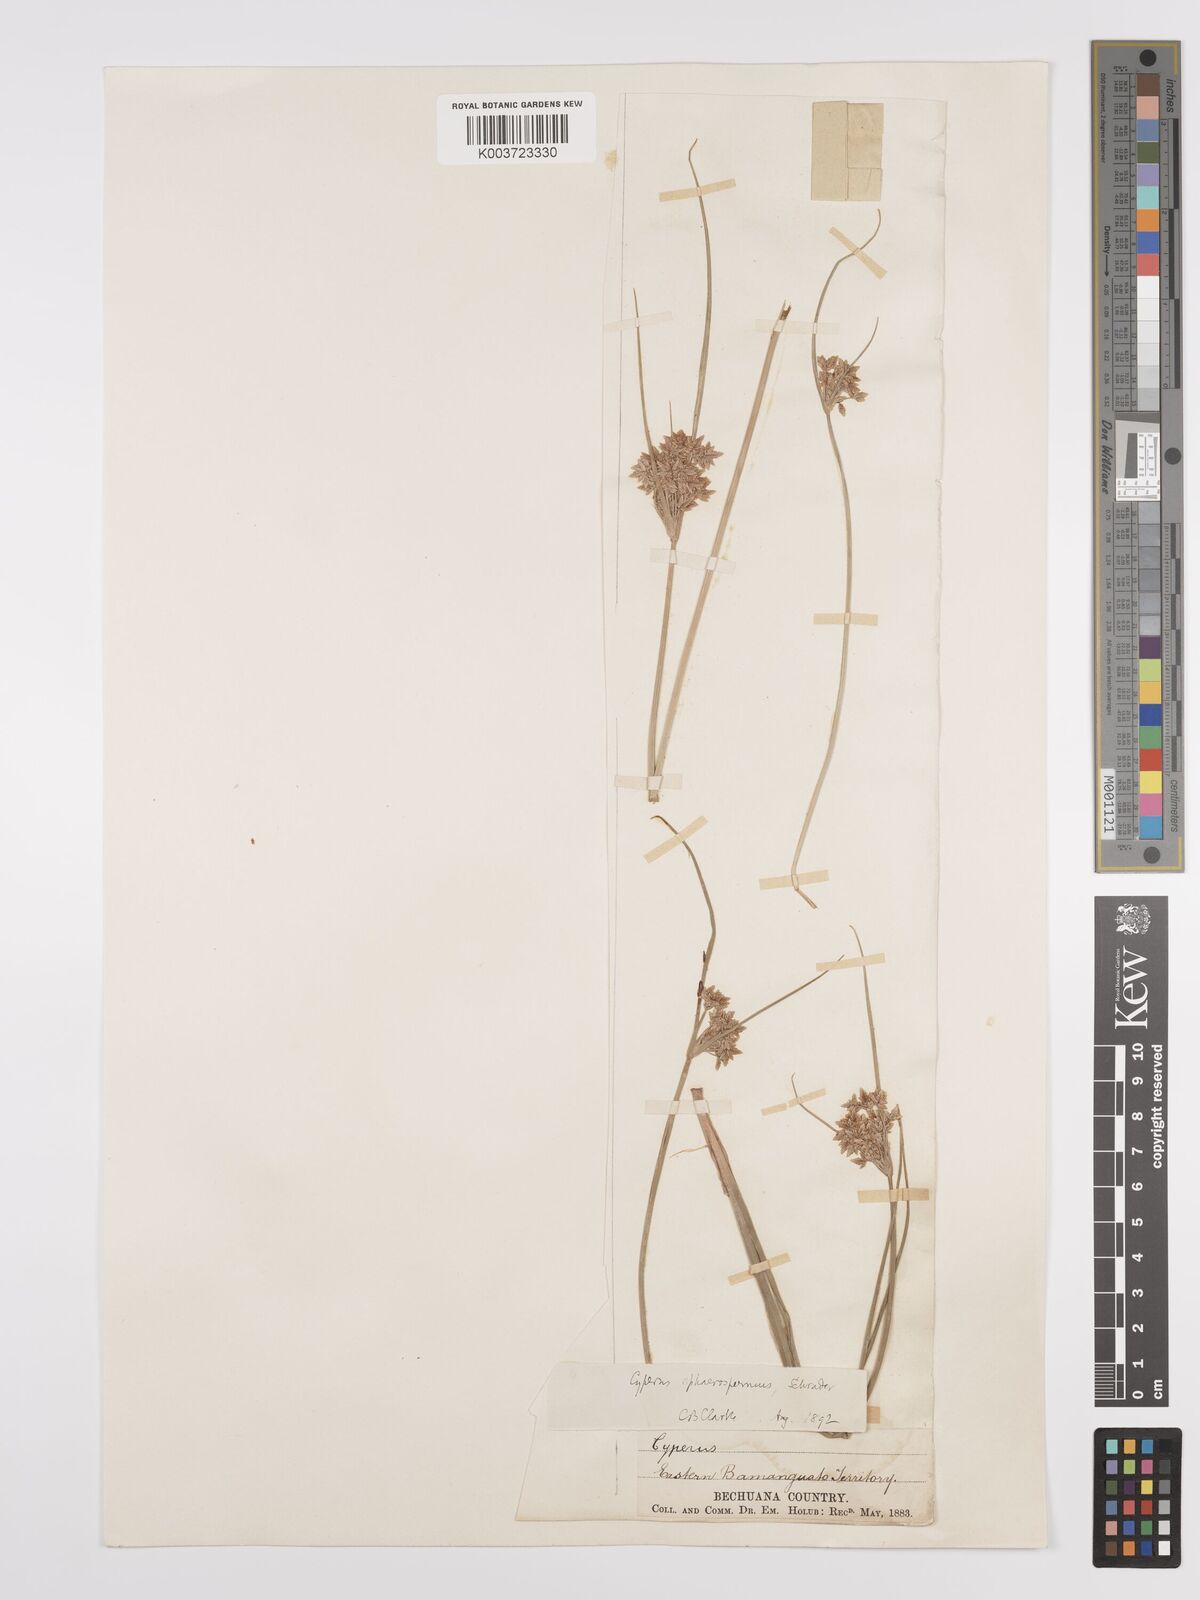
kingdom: Plantae
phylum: Tracheophyta
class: Liliopsida
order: Poales
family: Cyperaceae
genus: Cyperus
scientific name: Cyperus denudatus
